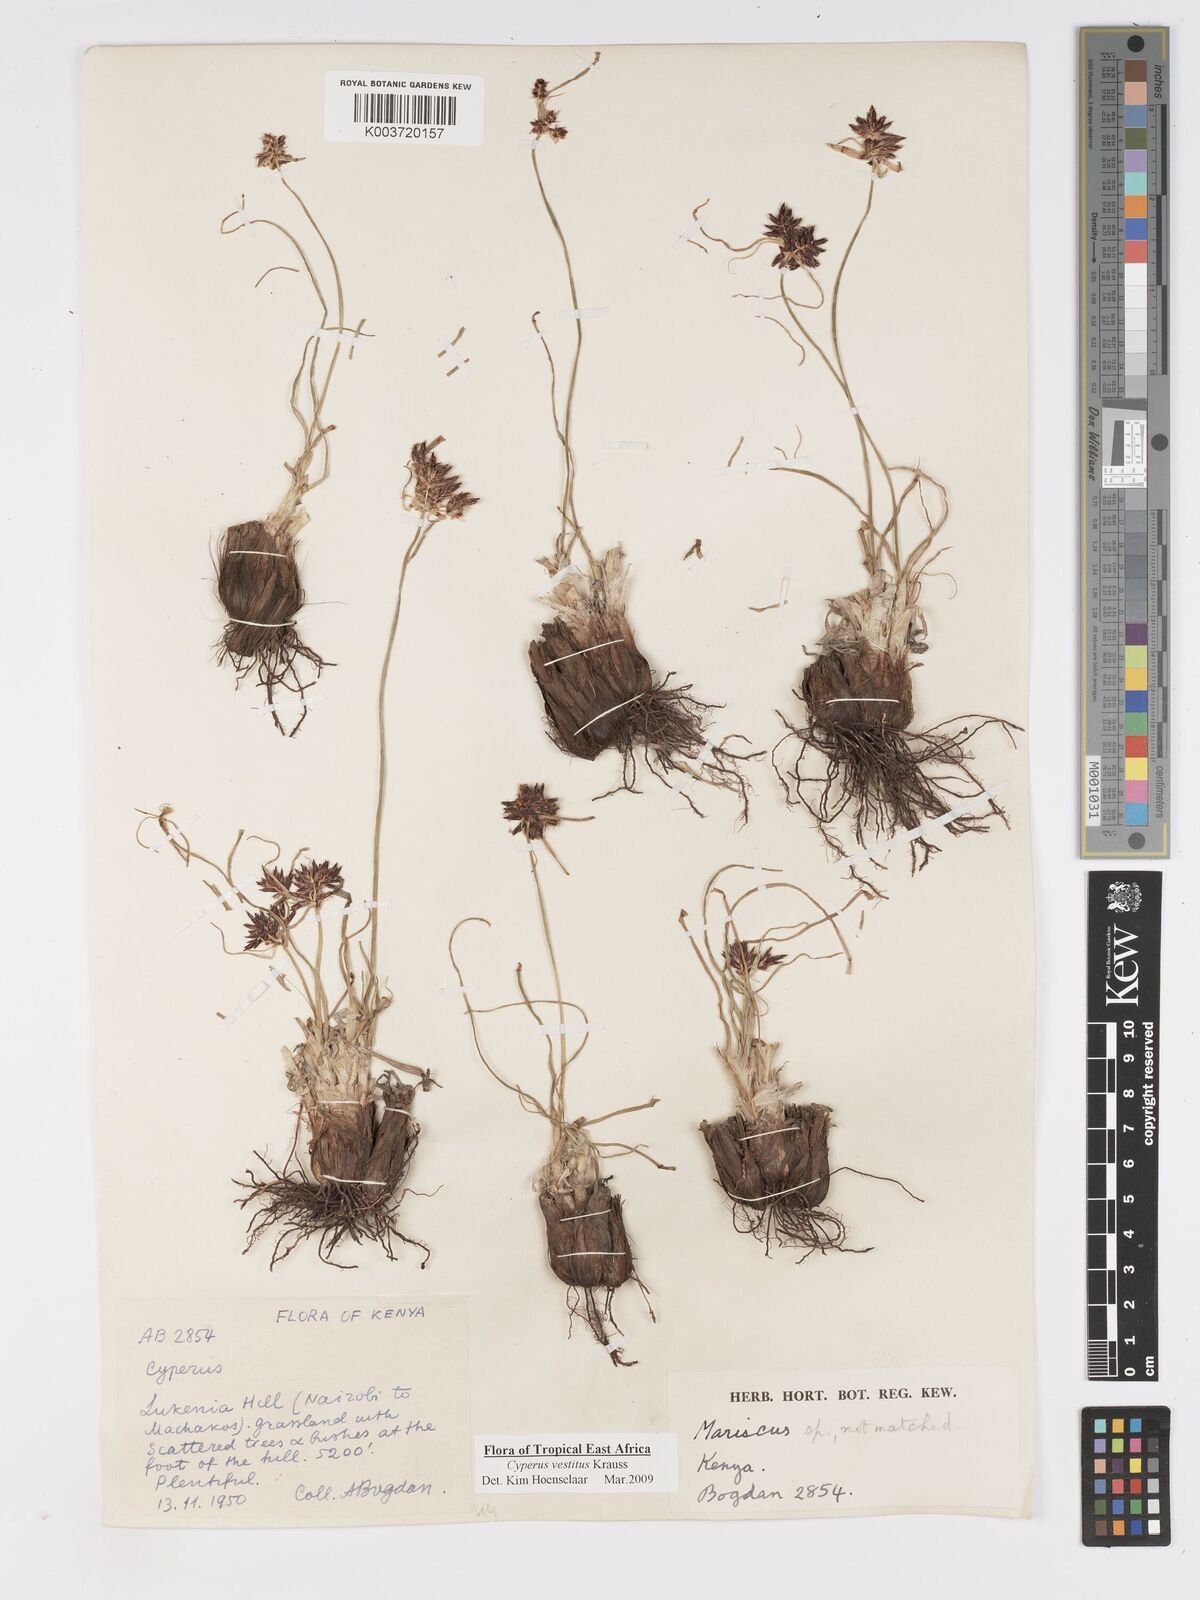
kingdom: Plantae
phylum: Tracheophyta
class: Liliopsida
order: Poales
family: Cyperaceae
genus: Cyperus
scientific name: Cyperus vestitus
